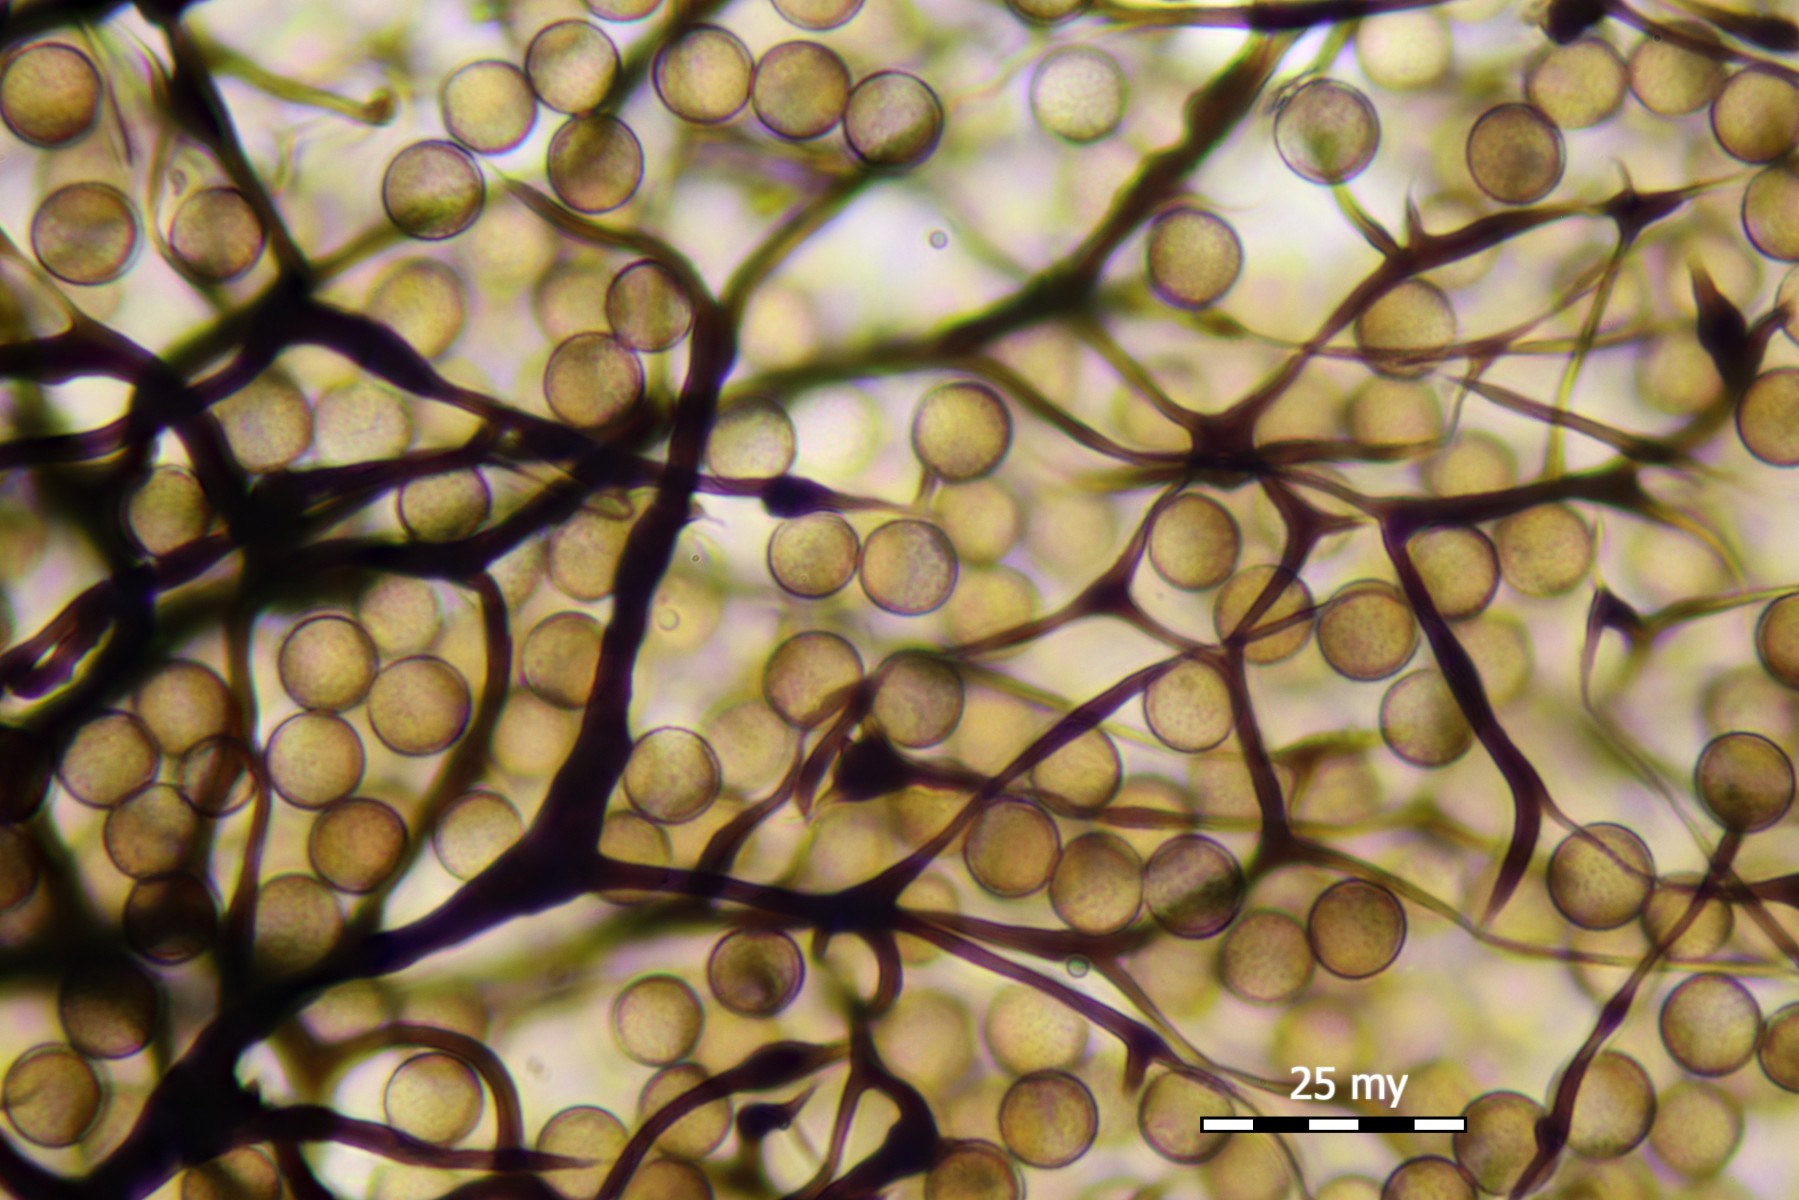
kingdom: Protozoa
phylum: Mycetozoa
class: Myxomycetes
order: Stemonitidales
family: Stemonitidaceae
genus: Comatricha
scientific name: Comatricha elegans
